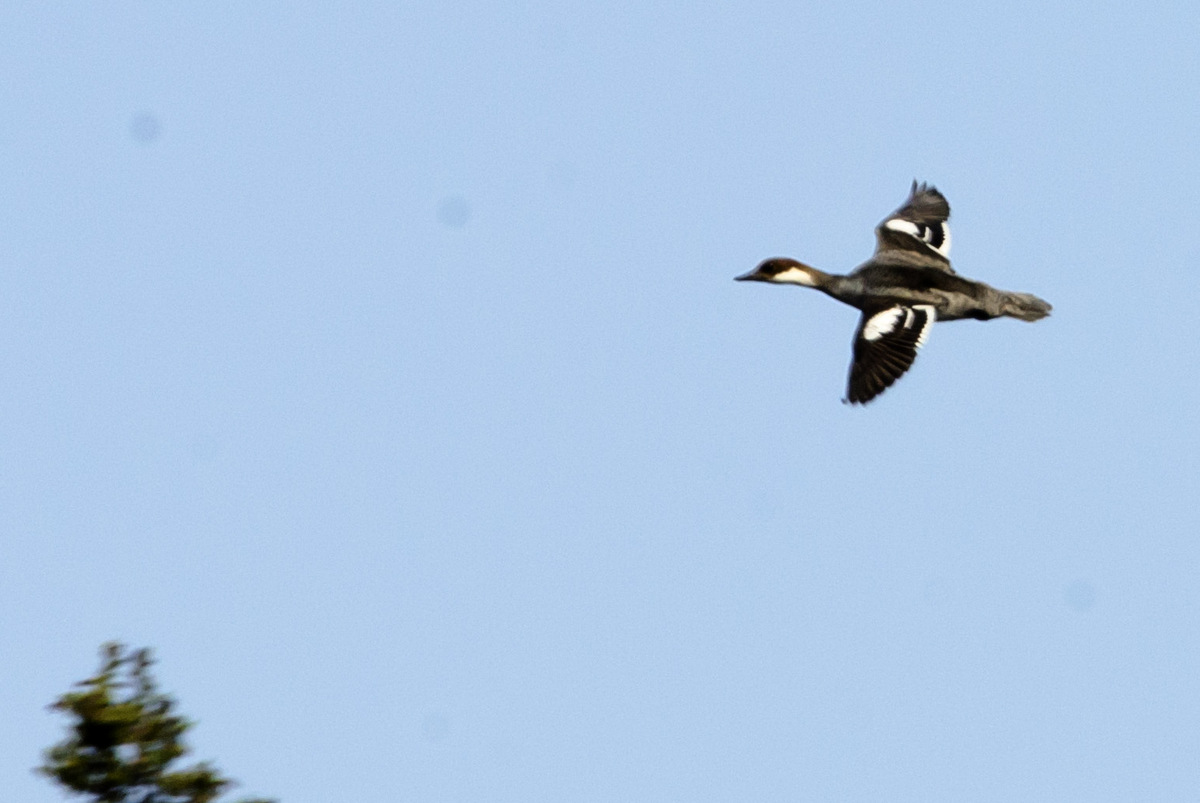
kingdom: Animalia
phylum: Chordata
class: Aves
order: Anseriformes
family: Anatidae
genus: Mergellus
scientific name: Mergellus albellus
